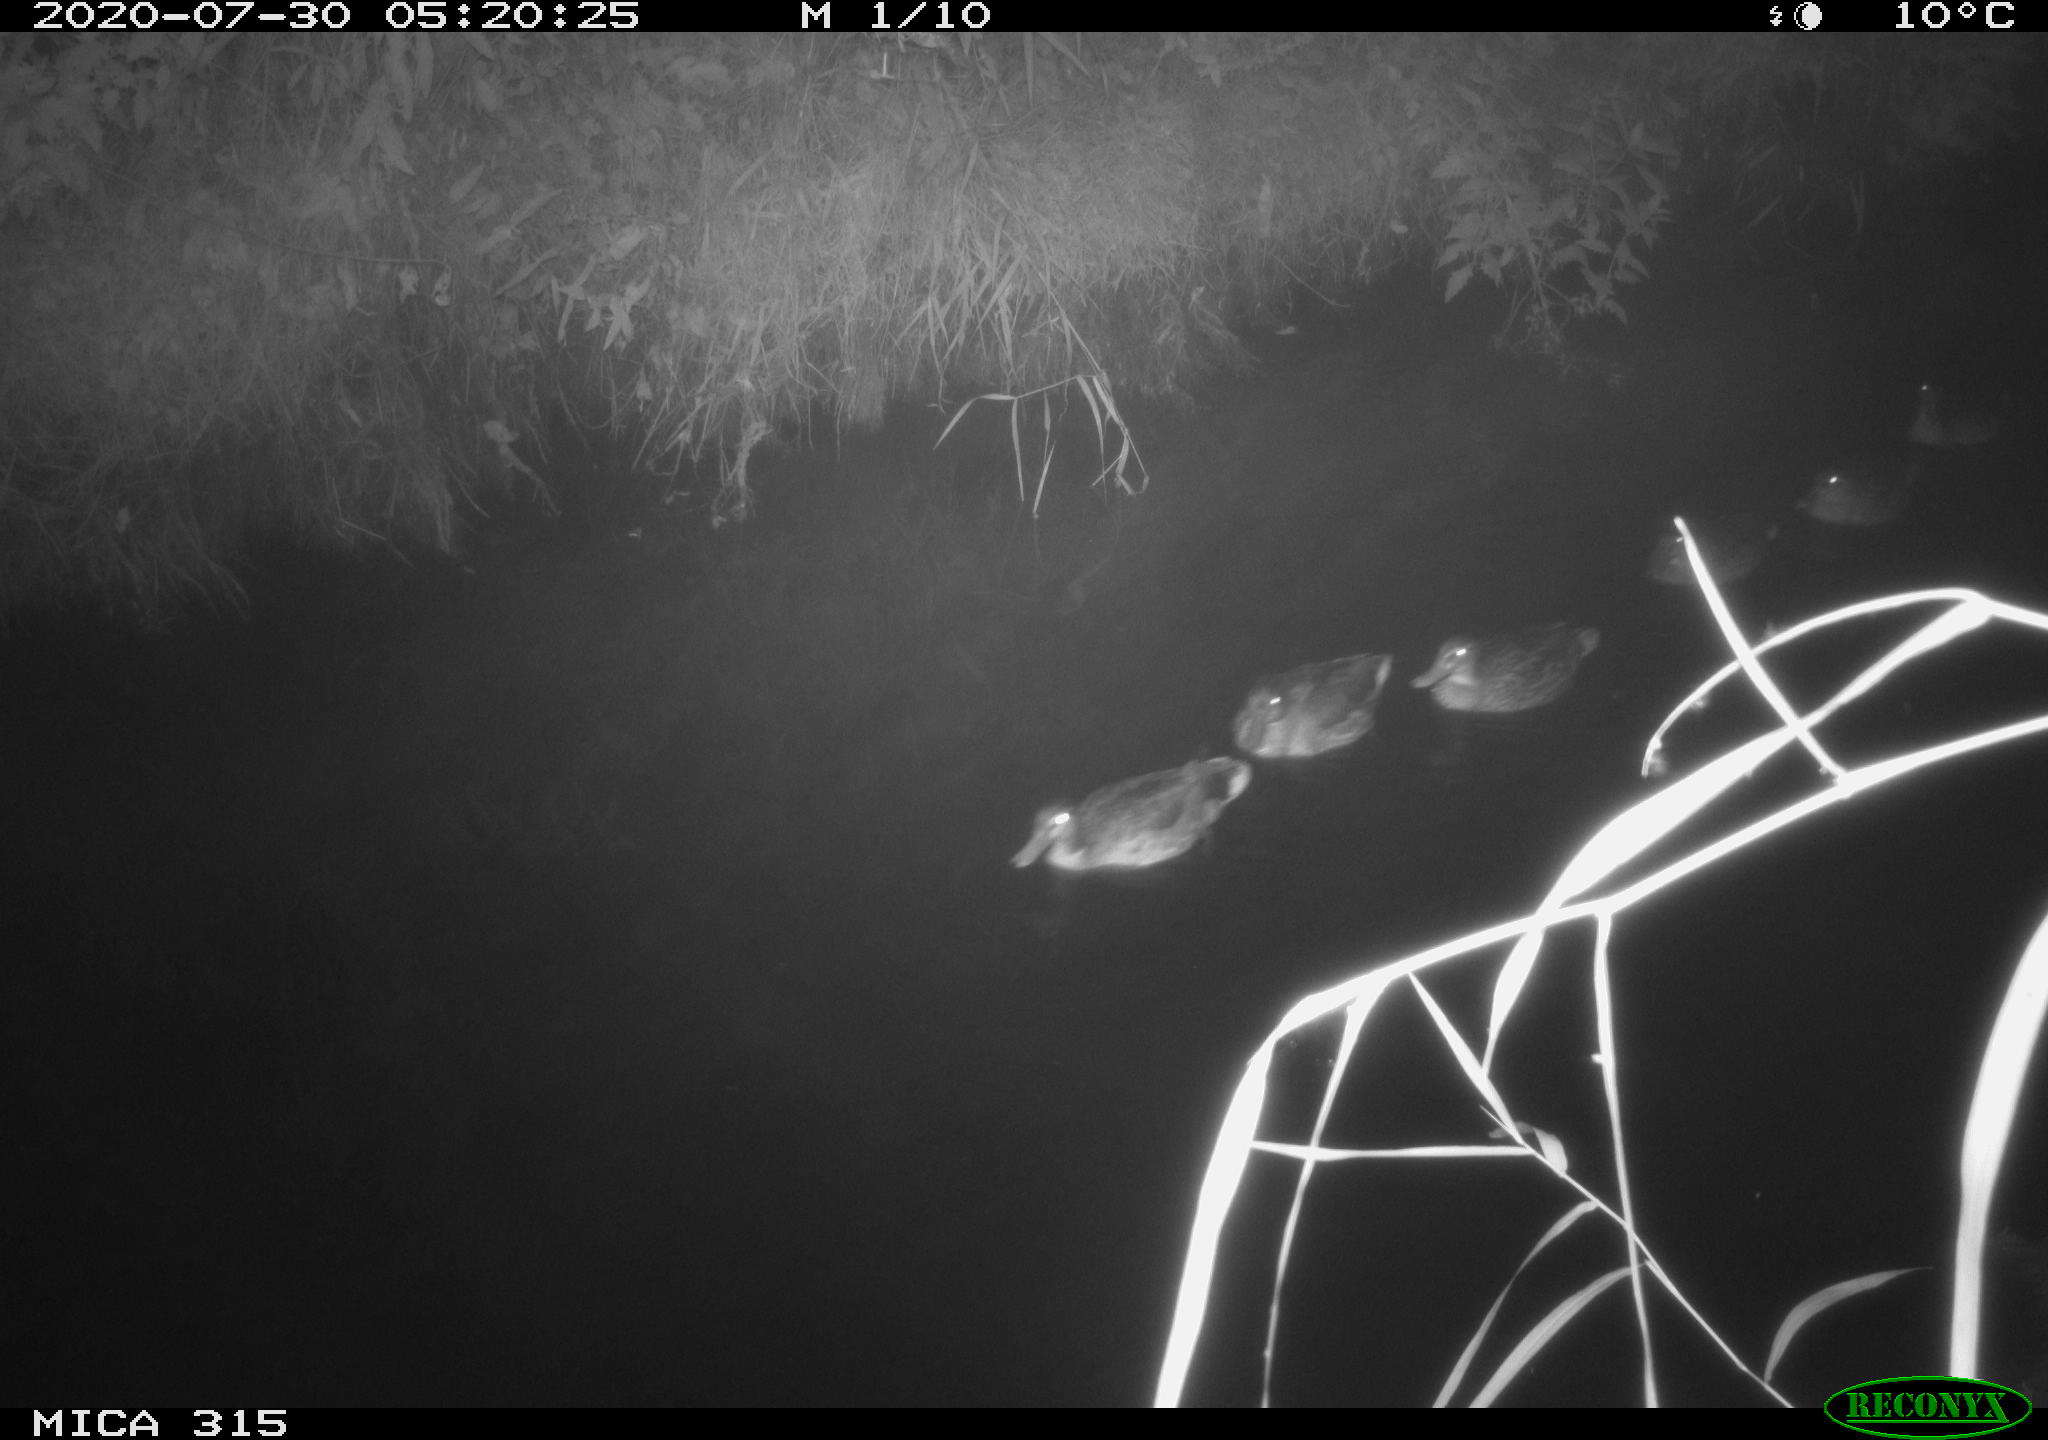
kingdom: Animalia
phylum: Chordata
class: Aves
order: Anseriformes
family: Anatidae
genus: Anas
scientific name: Anas platyrhynchos
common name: Mallard
